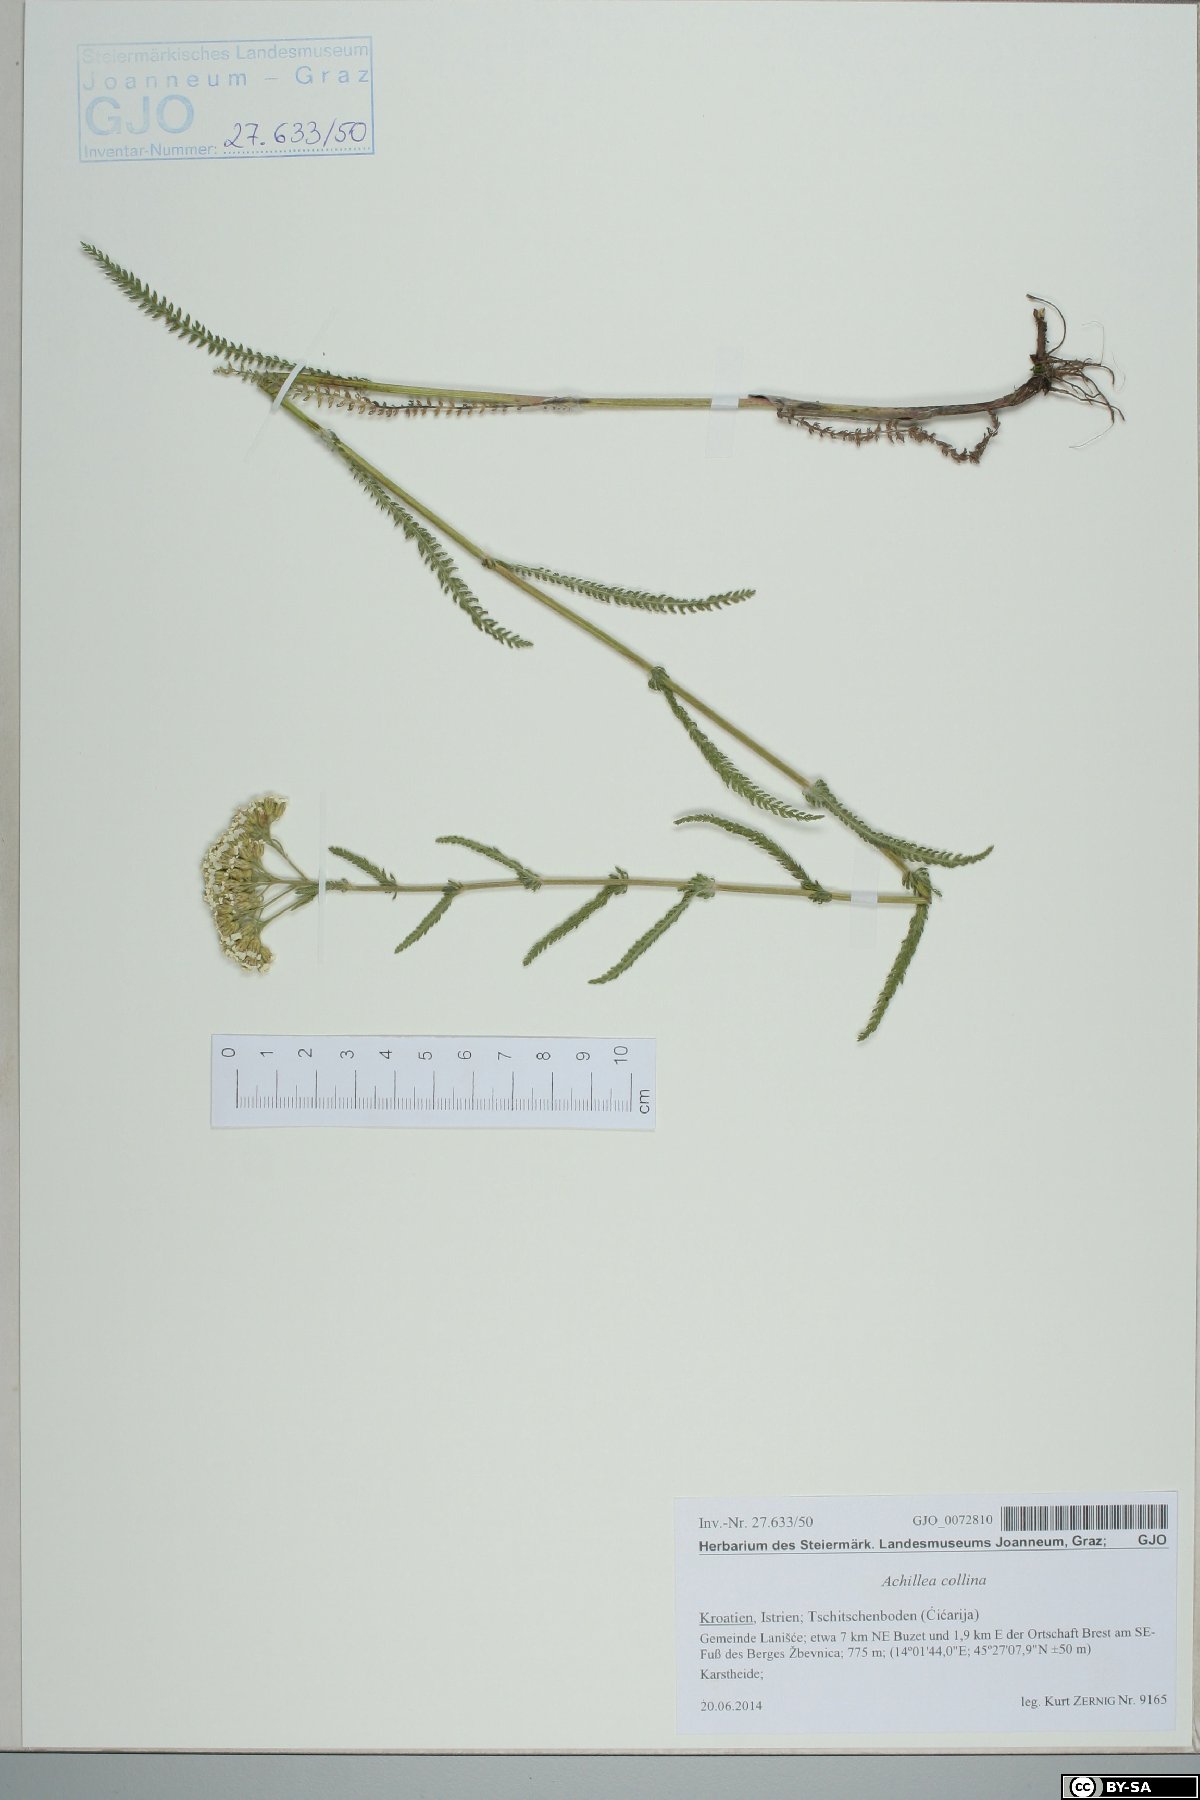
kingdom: Plantae
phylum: Tracheophyta
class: Magnoliopsida
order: Asterales
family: Asteraceae
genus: Achillea
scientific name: Achillea collina
